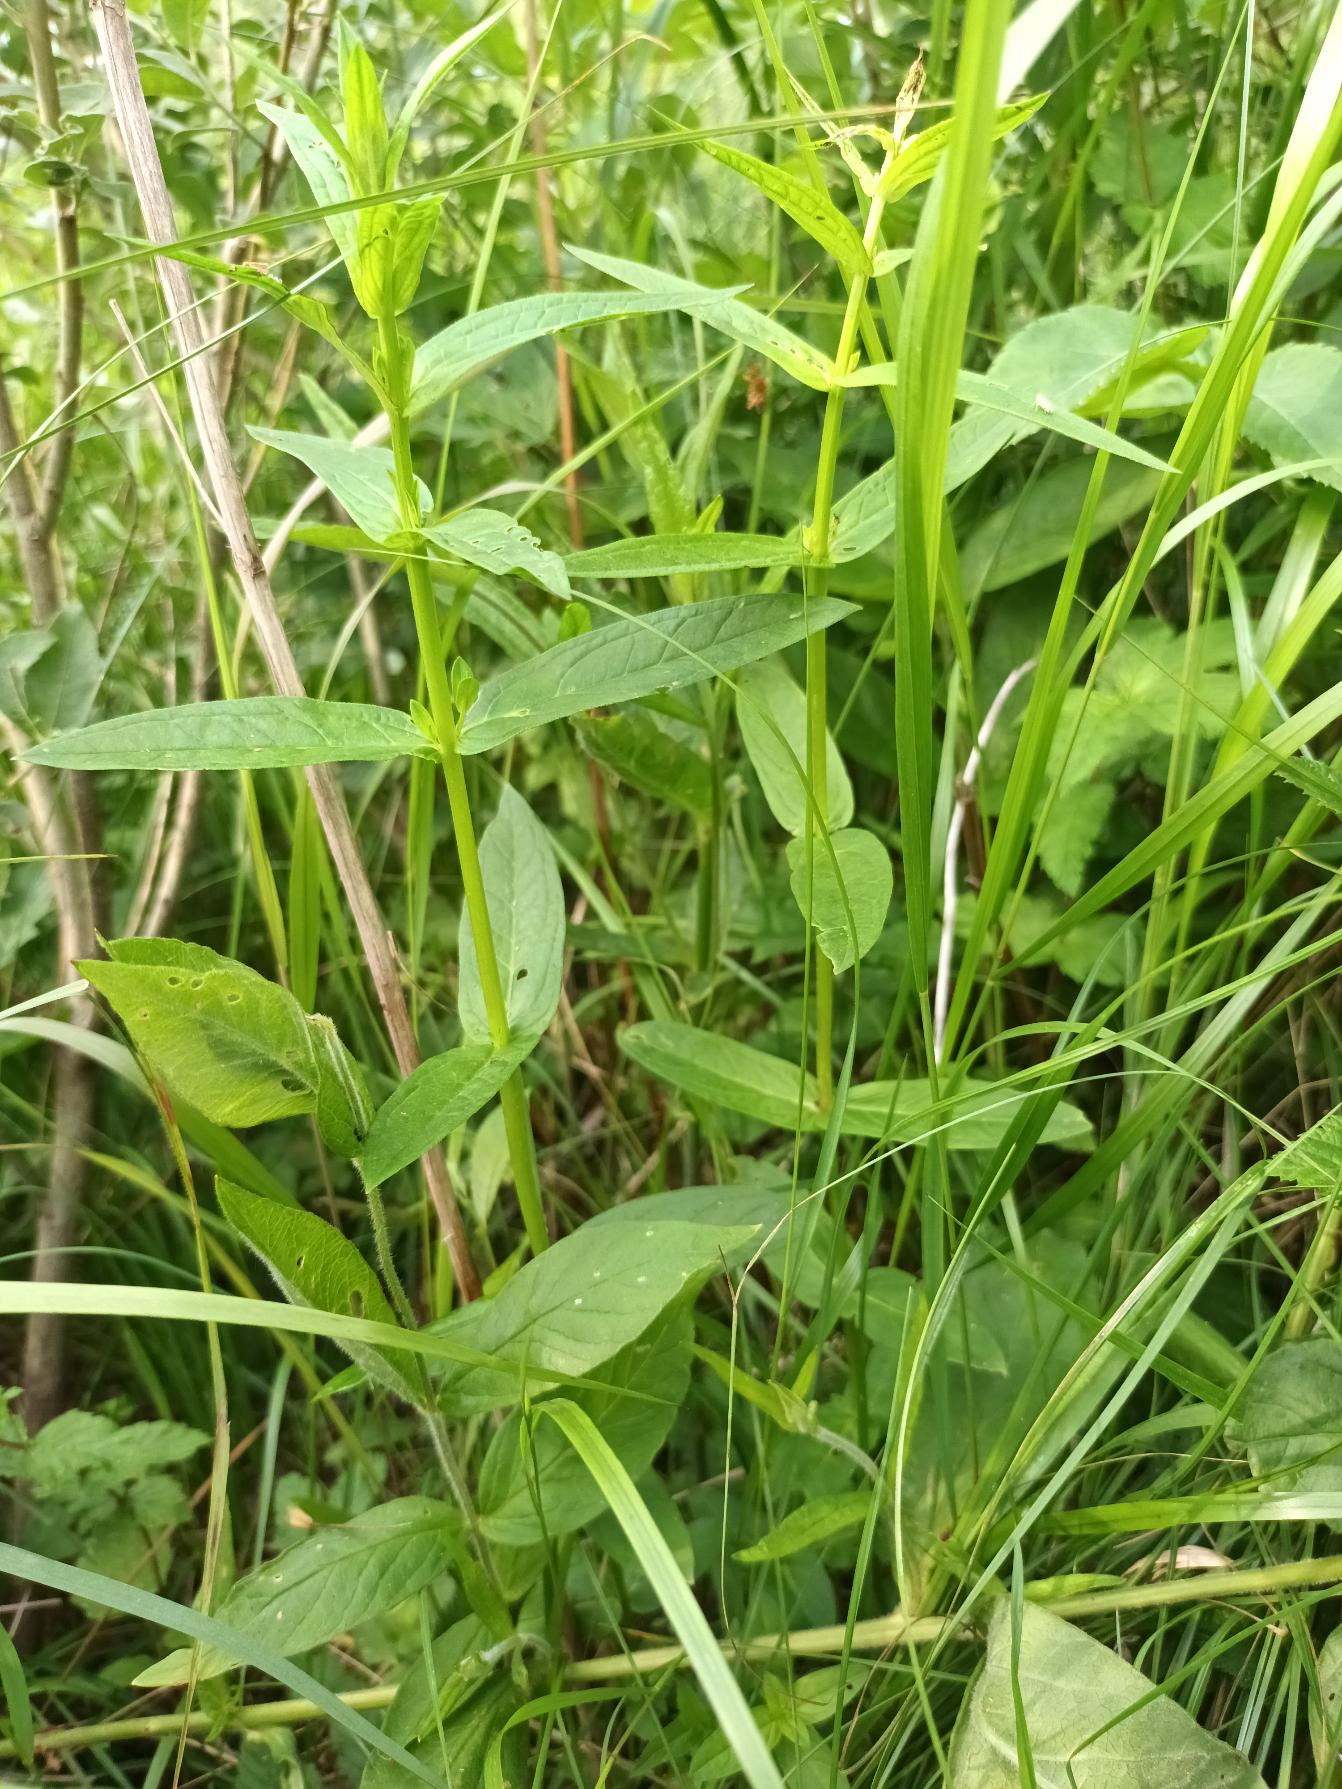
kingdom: Plantae
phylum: Tracheophyta
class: Magnoliopsida
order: Myrtales
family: Lythraceae
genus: Lythrum
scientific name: Lythrum salicaria
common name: Kattehale
